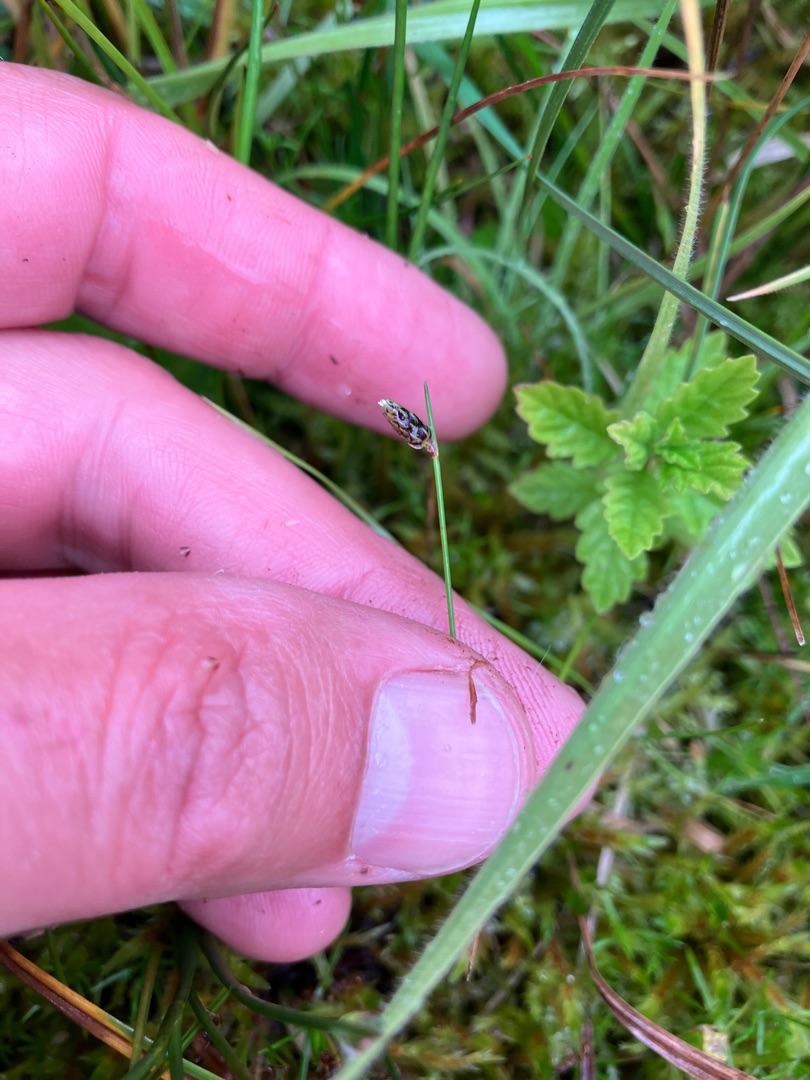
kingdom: Plantae
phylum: Tracheophyta
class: Liliopsida
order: Poales
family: Cyperaceae
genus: Isolepis
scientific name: Isolepis setacea
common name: Børste-kogleaks
